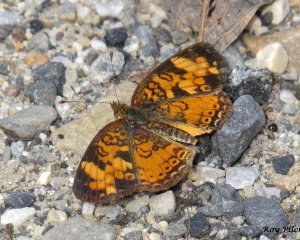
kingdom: Animalia
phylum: Arthropoda
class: Insecta
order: Lepidoptera
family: Nymphalidae
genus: Phyciodes
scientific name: Phyciodes tharos
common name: Northern Crescent
